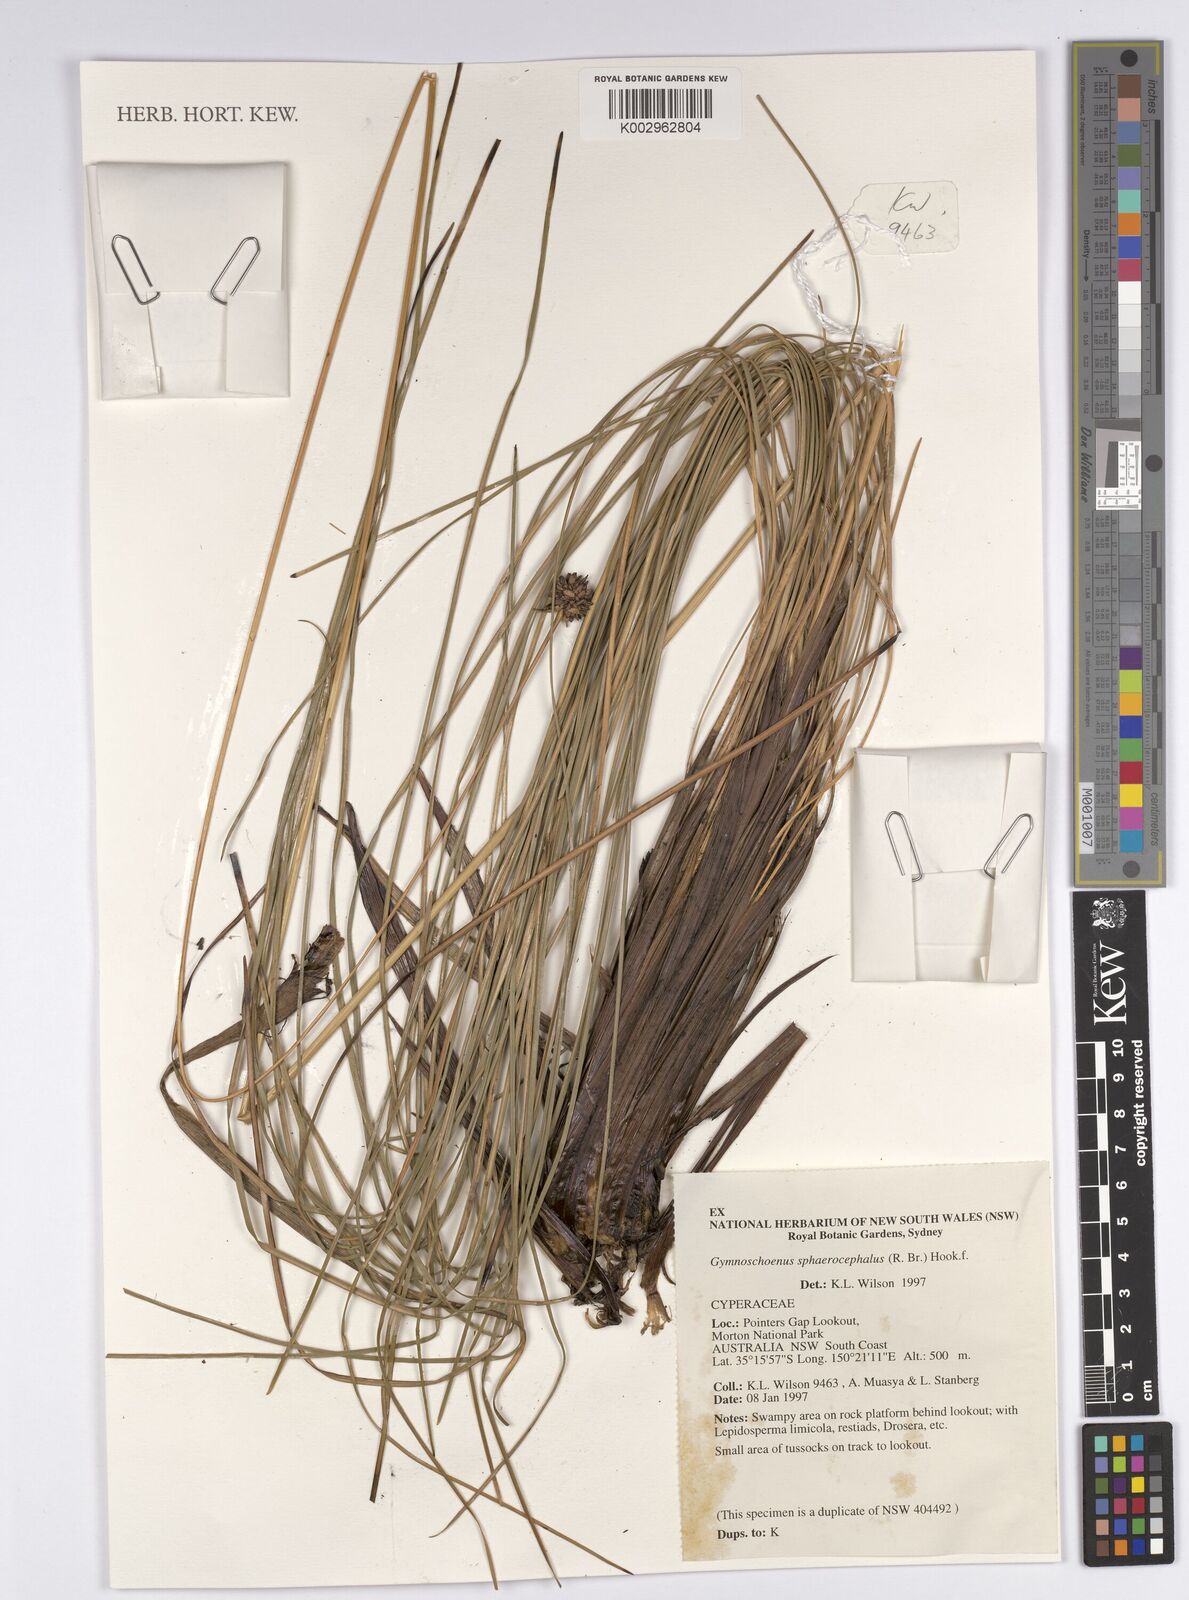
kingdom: Plantae
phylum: Tracheophyta
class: Liliopsida
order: Poales
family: Cyperaceae
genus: Gymnoschoenus
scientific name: Gymnoschoenus sphaerocephalus
